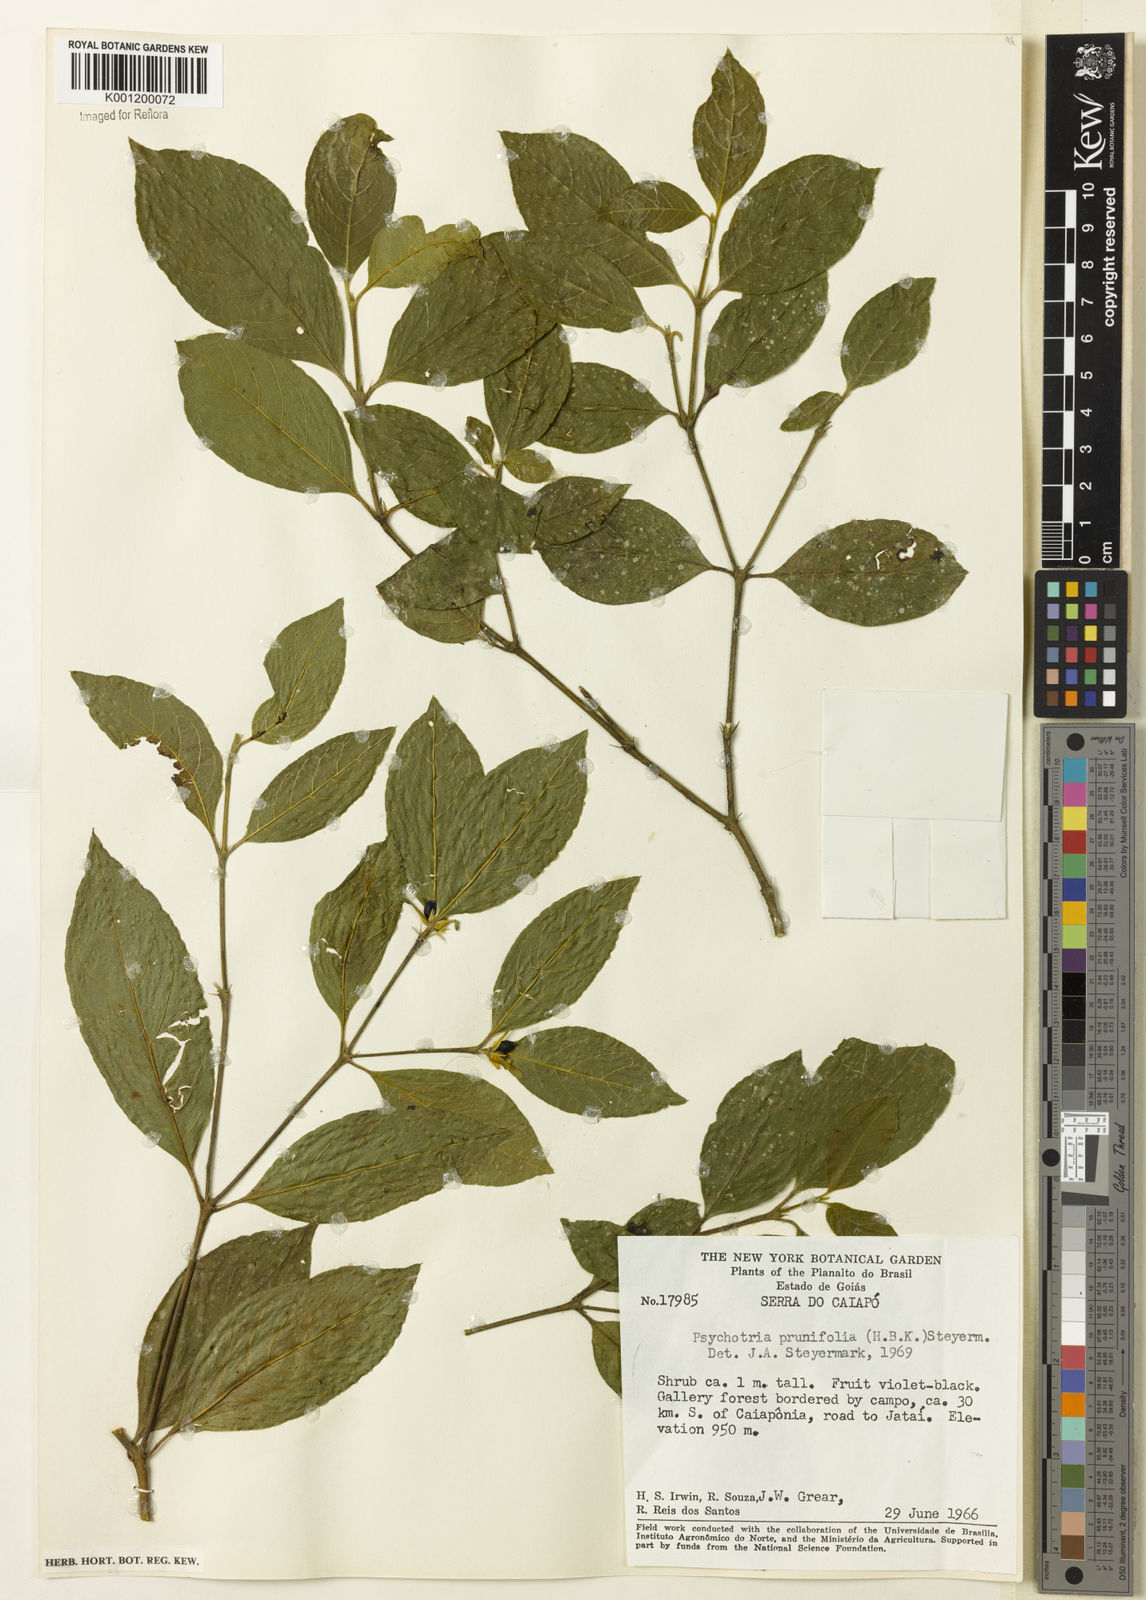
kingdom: Plantae
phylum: Tracheophyta
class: Magnoliopsida
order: Gentianales
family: Rubiaceae
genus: Palicourea
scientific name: Palicourea prunifolia
